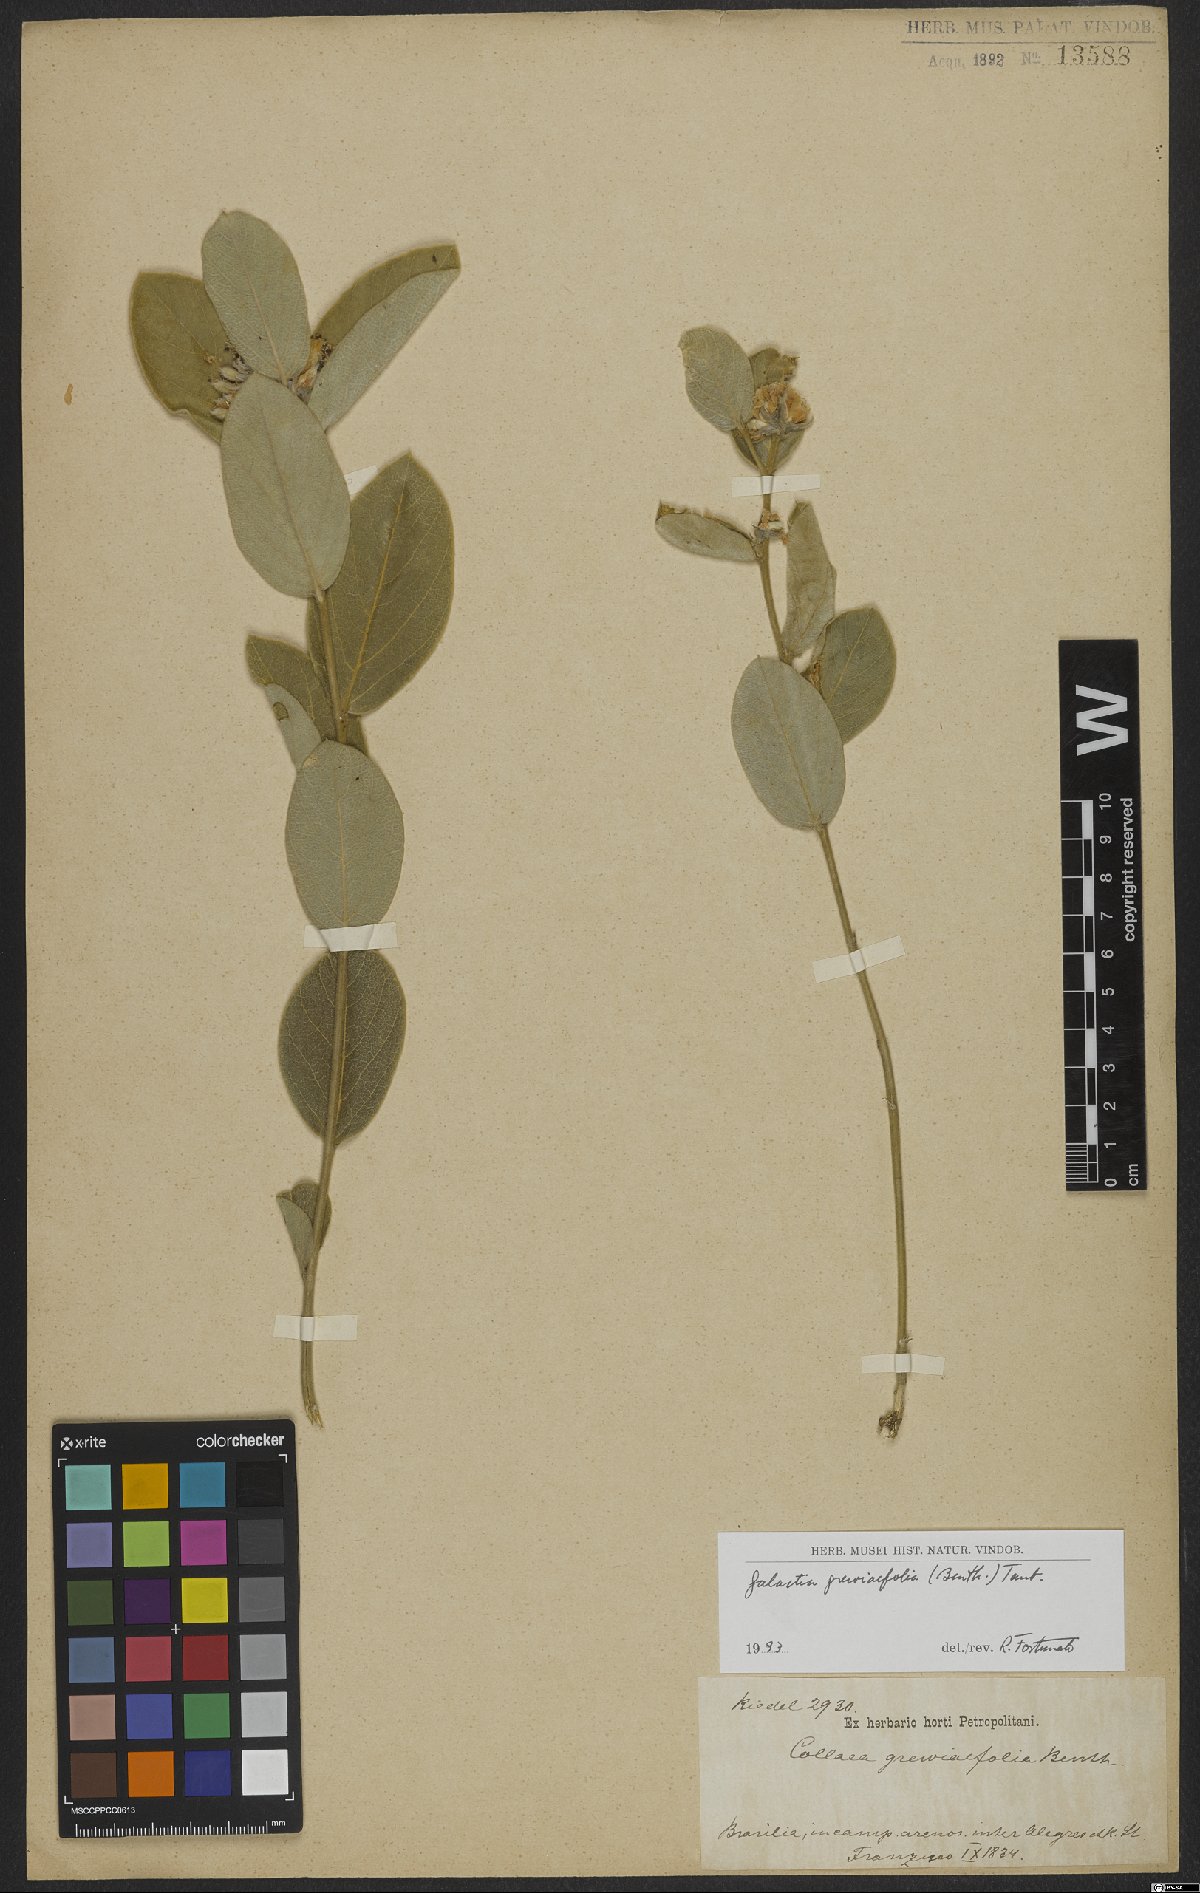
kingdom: Plantae
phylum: Tracheophyta
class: Magnoliopsida
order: Fabales
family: Fabaceae
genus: Cerradicola
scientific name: Cerradicola grewiifolia
